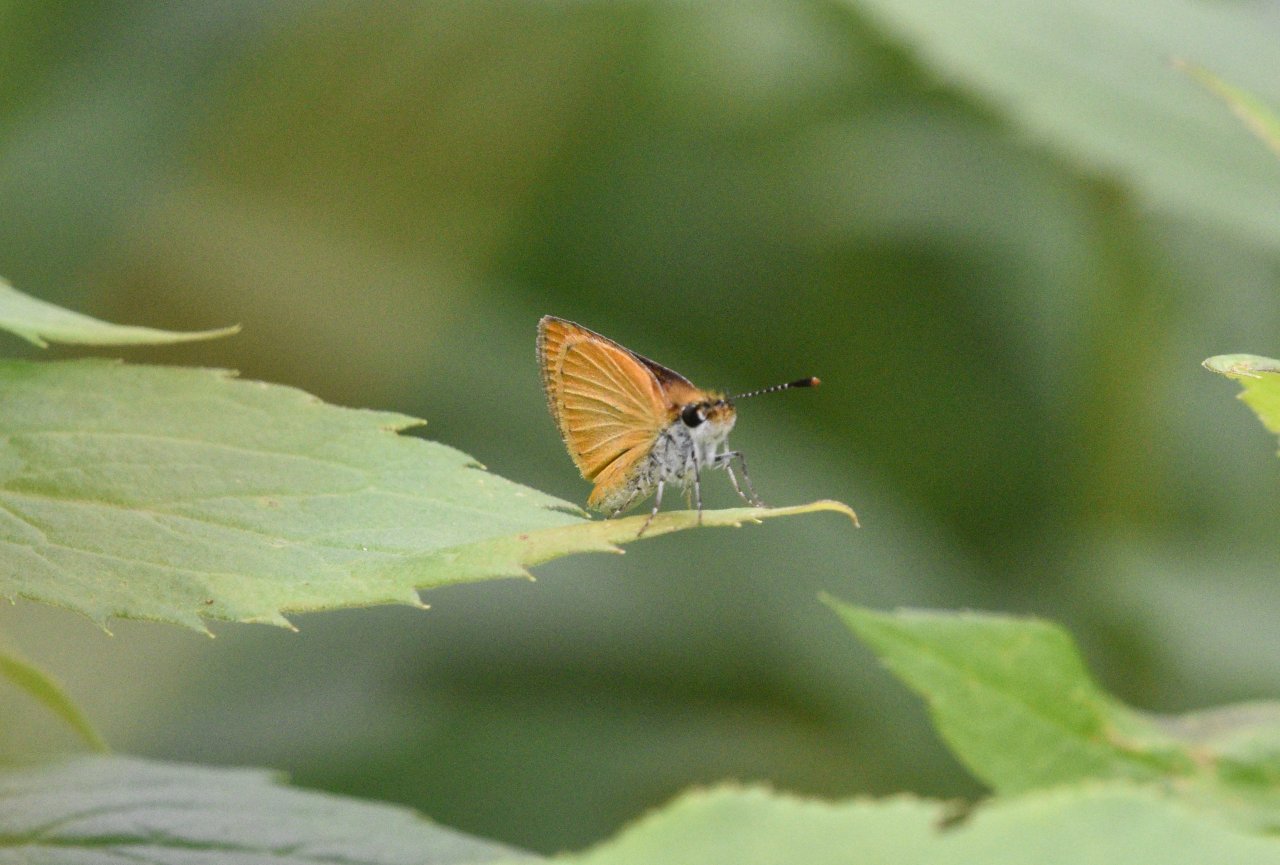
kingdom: Animalia
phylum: Arthropoda
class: Insecta
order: Lepidoptera
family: Hesperiidae
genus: Ancyloxypha
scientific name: Ancyloxypha numitor
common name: Least Skipper
